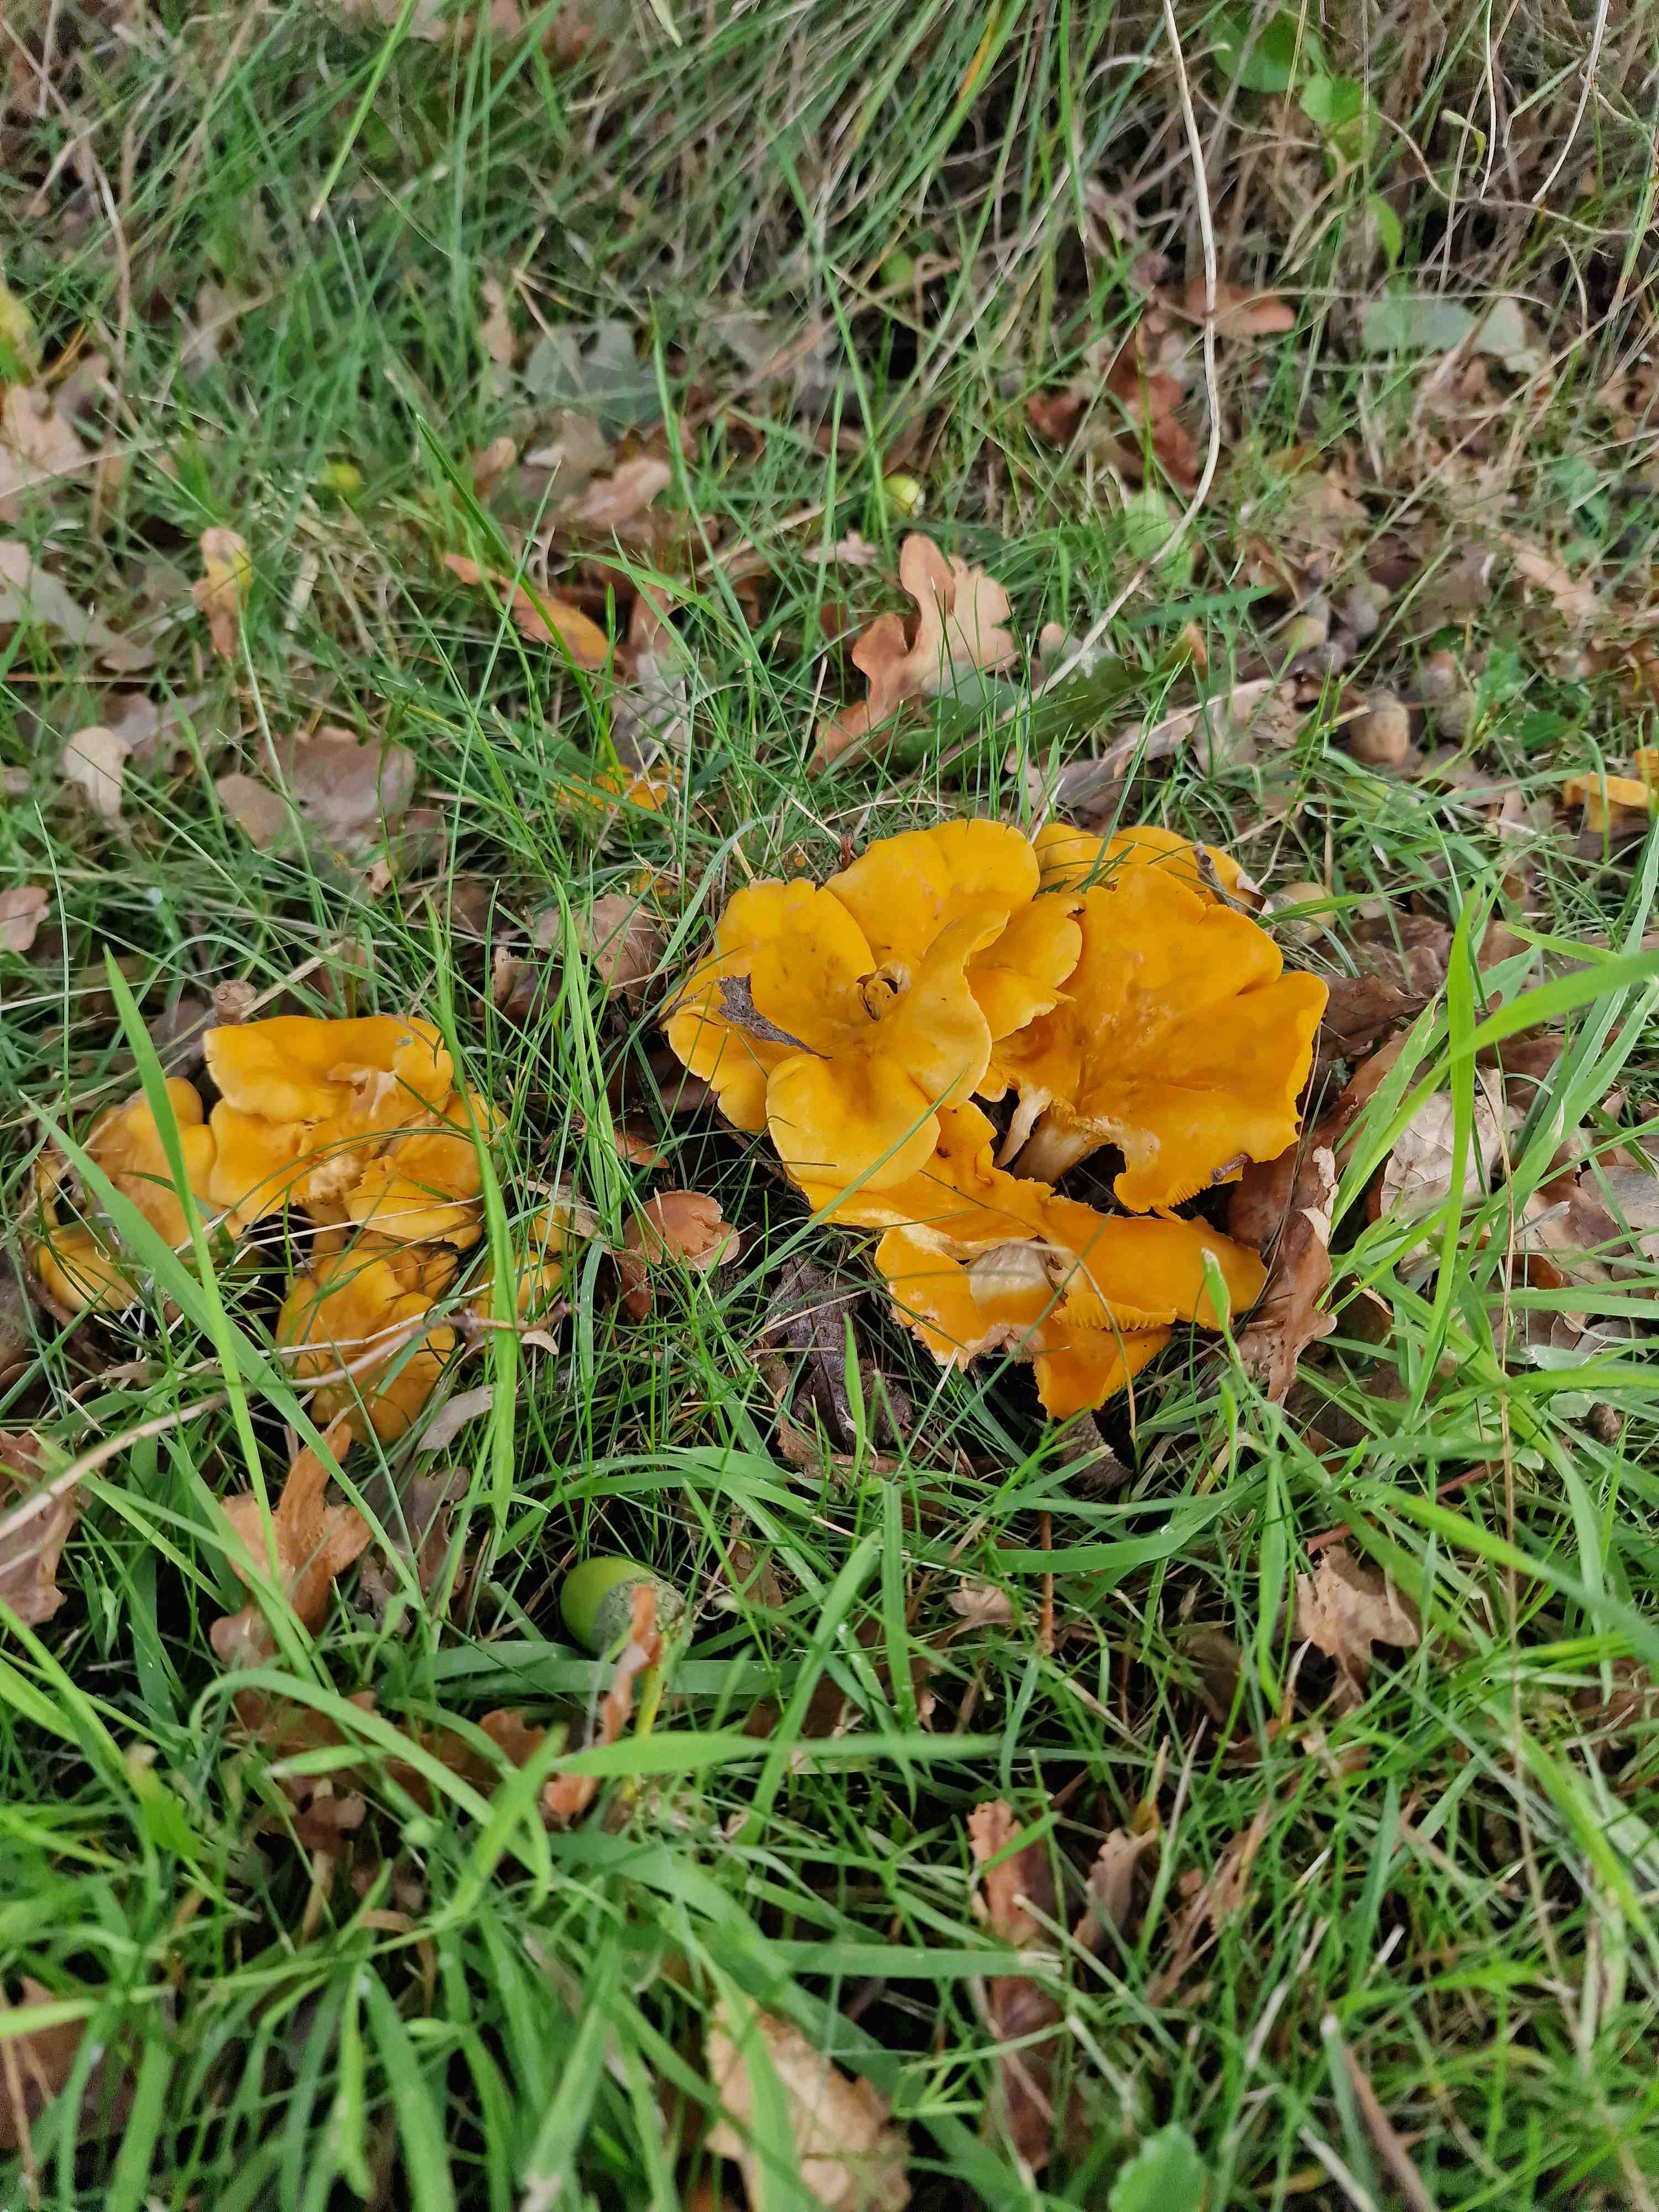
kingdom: Fungi
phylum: Basidiomycota
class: Agaricomycetes
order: Cantharellales
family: Hydnaceae
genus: Cantharellus
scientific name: Cantharellus cibarius
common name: almindelig kantarel
